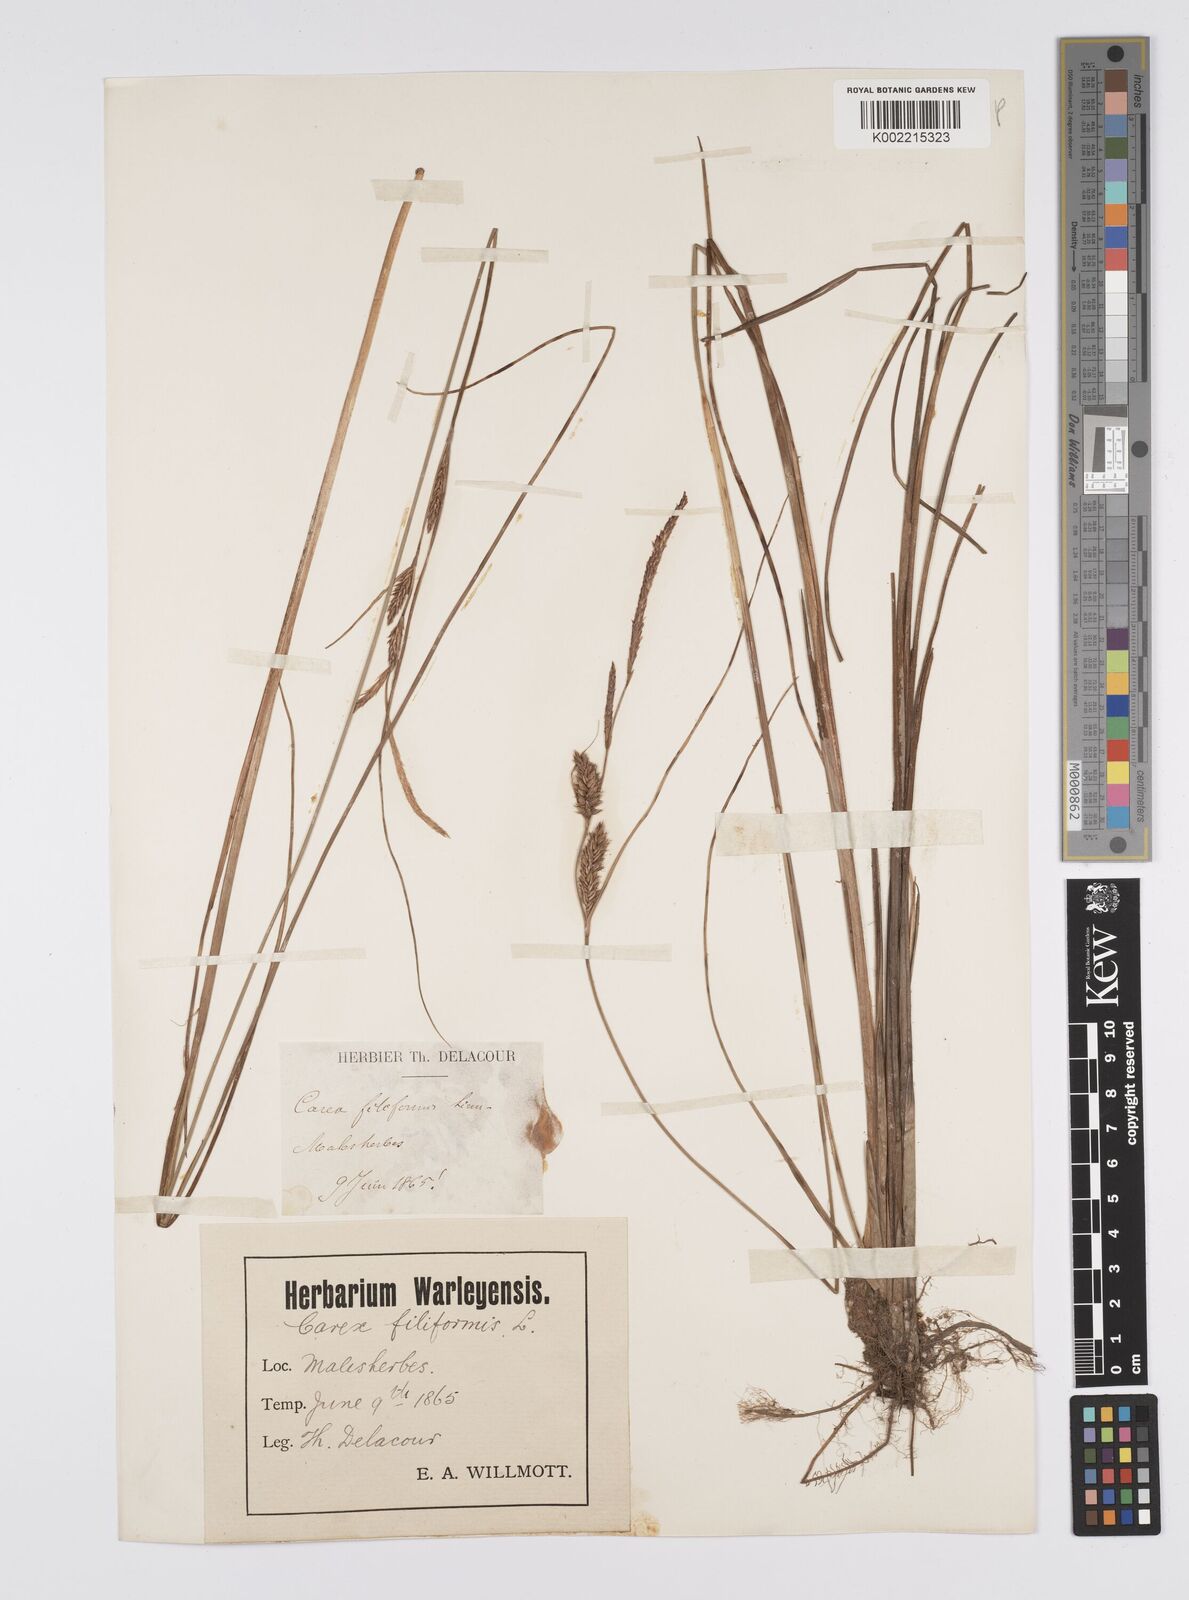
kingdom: Plantae
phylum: Tracheophyta
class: Liliopsida
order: Poales
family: Cyperaceae
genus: Carex
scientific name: Carex lasiocarpa
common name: Slender sedge
